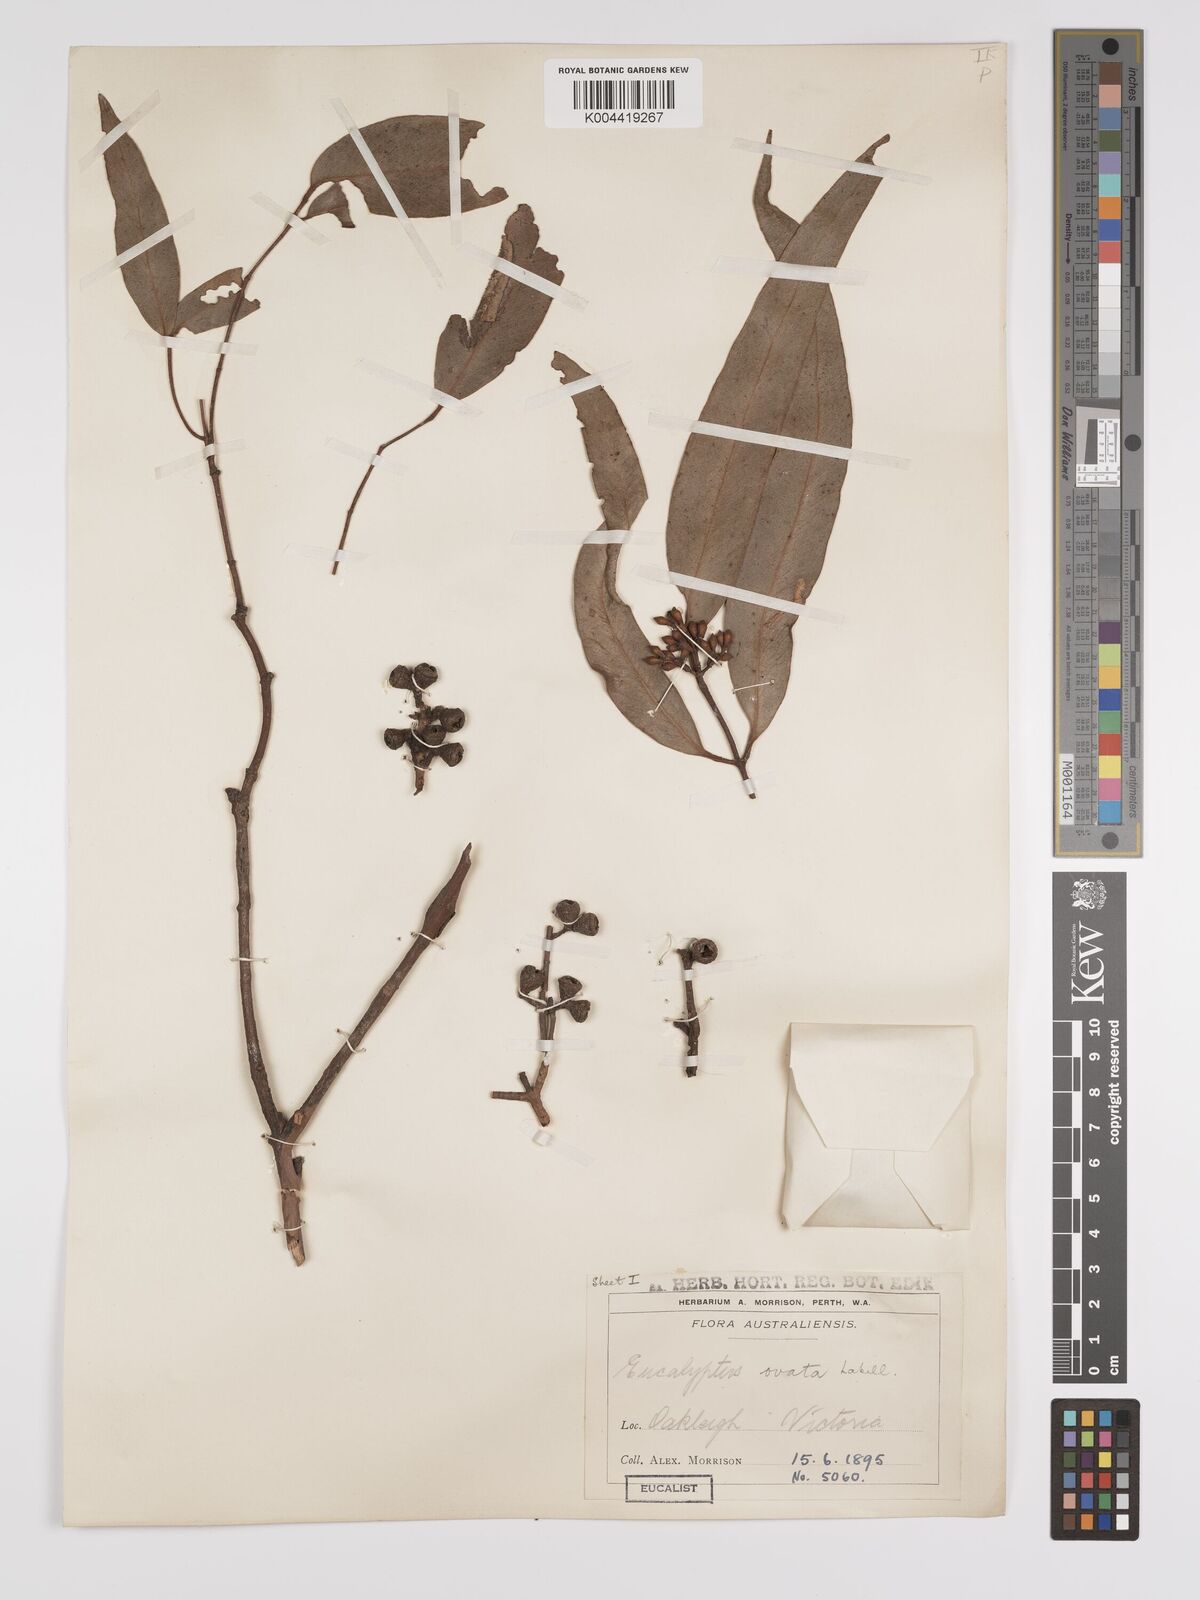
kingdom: Plantae
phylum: Tracheophyta
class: Magnoliopsida
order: Myrtales
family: Myrtaceae
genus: Eucalyptus
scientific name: Eucalyptus ovata
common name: Black-gum
